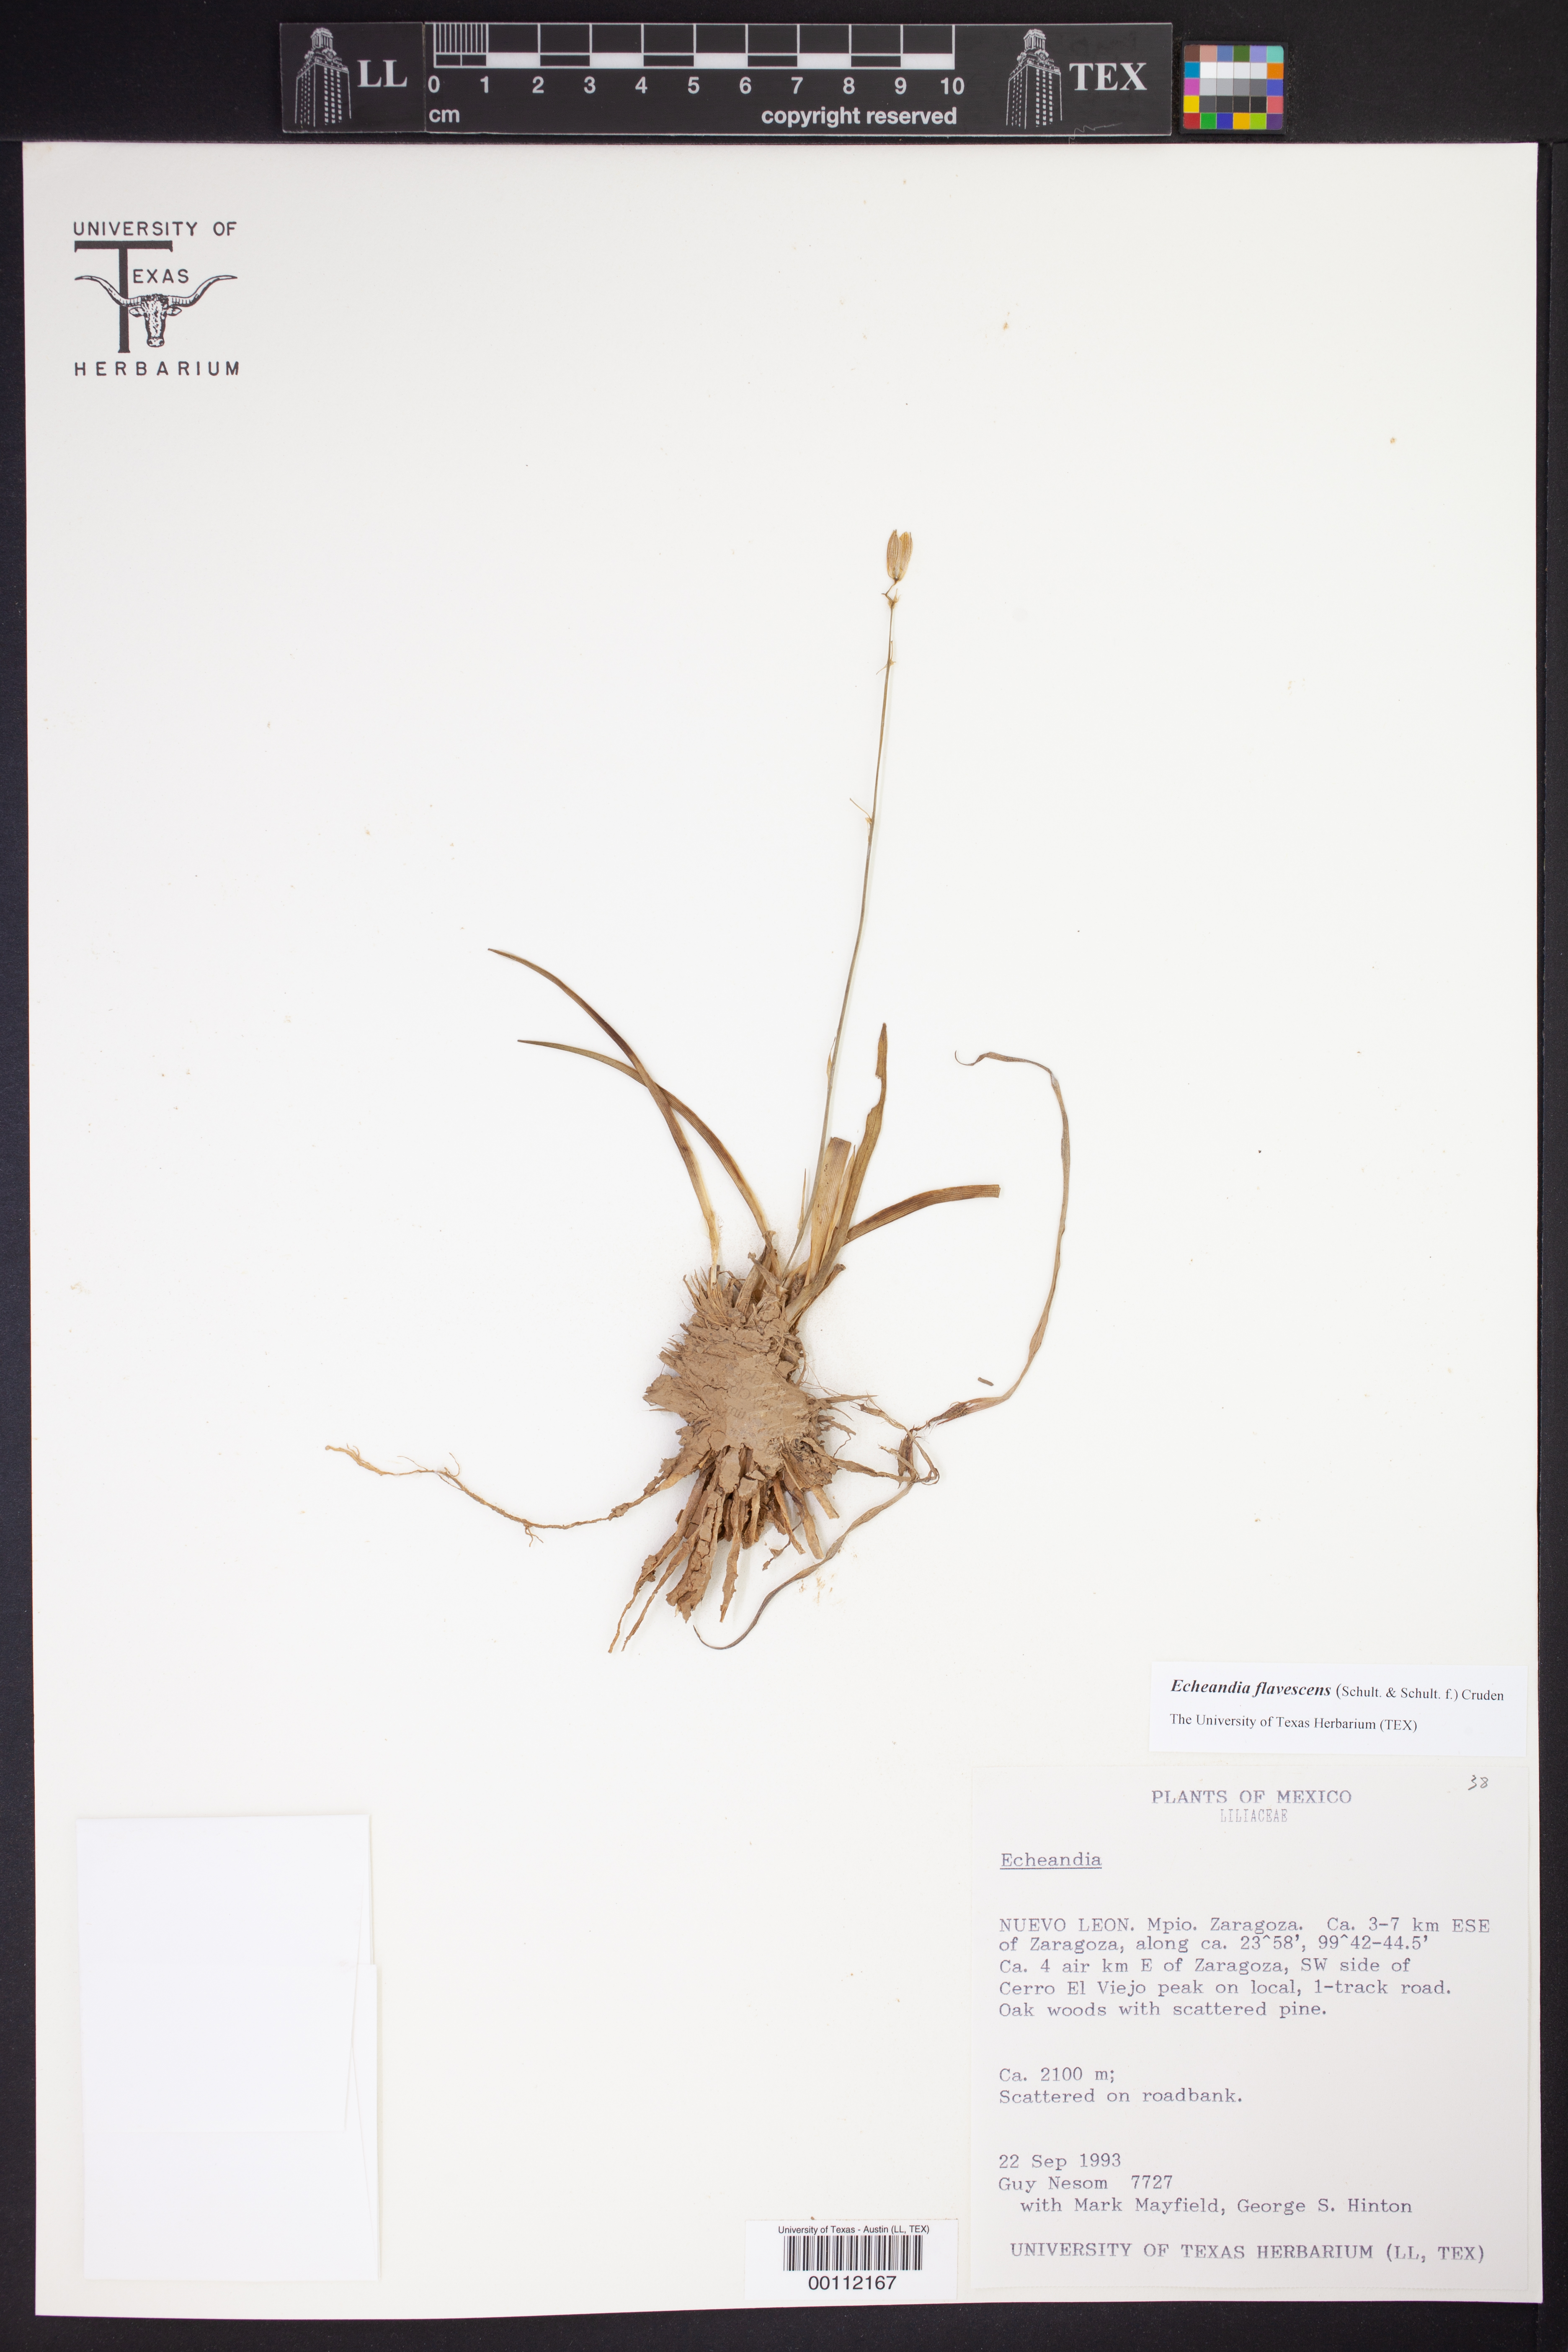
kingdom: Plantae
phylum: Tracheophyta
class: Liliopsida
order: Asparagales
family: Asparagaceae
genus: Echeandia
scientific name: Echeandia flavescens
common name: Amberlily
